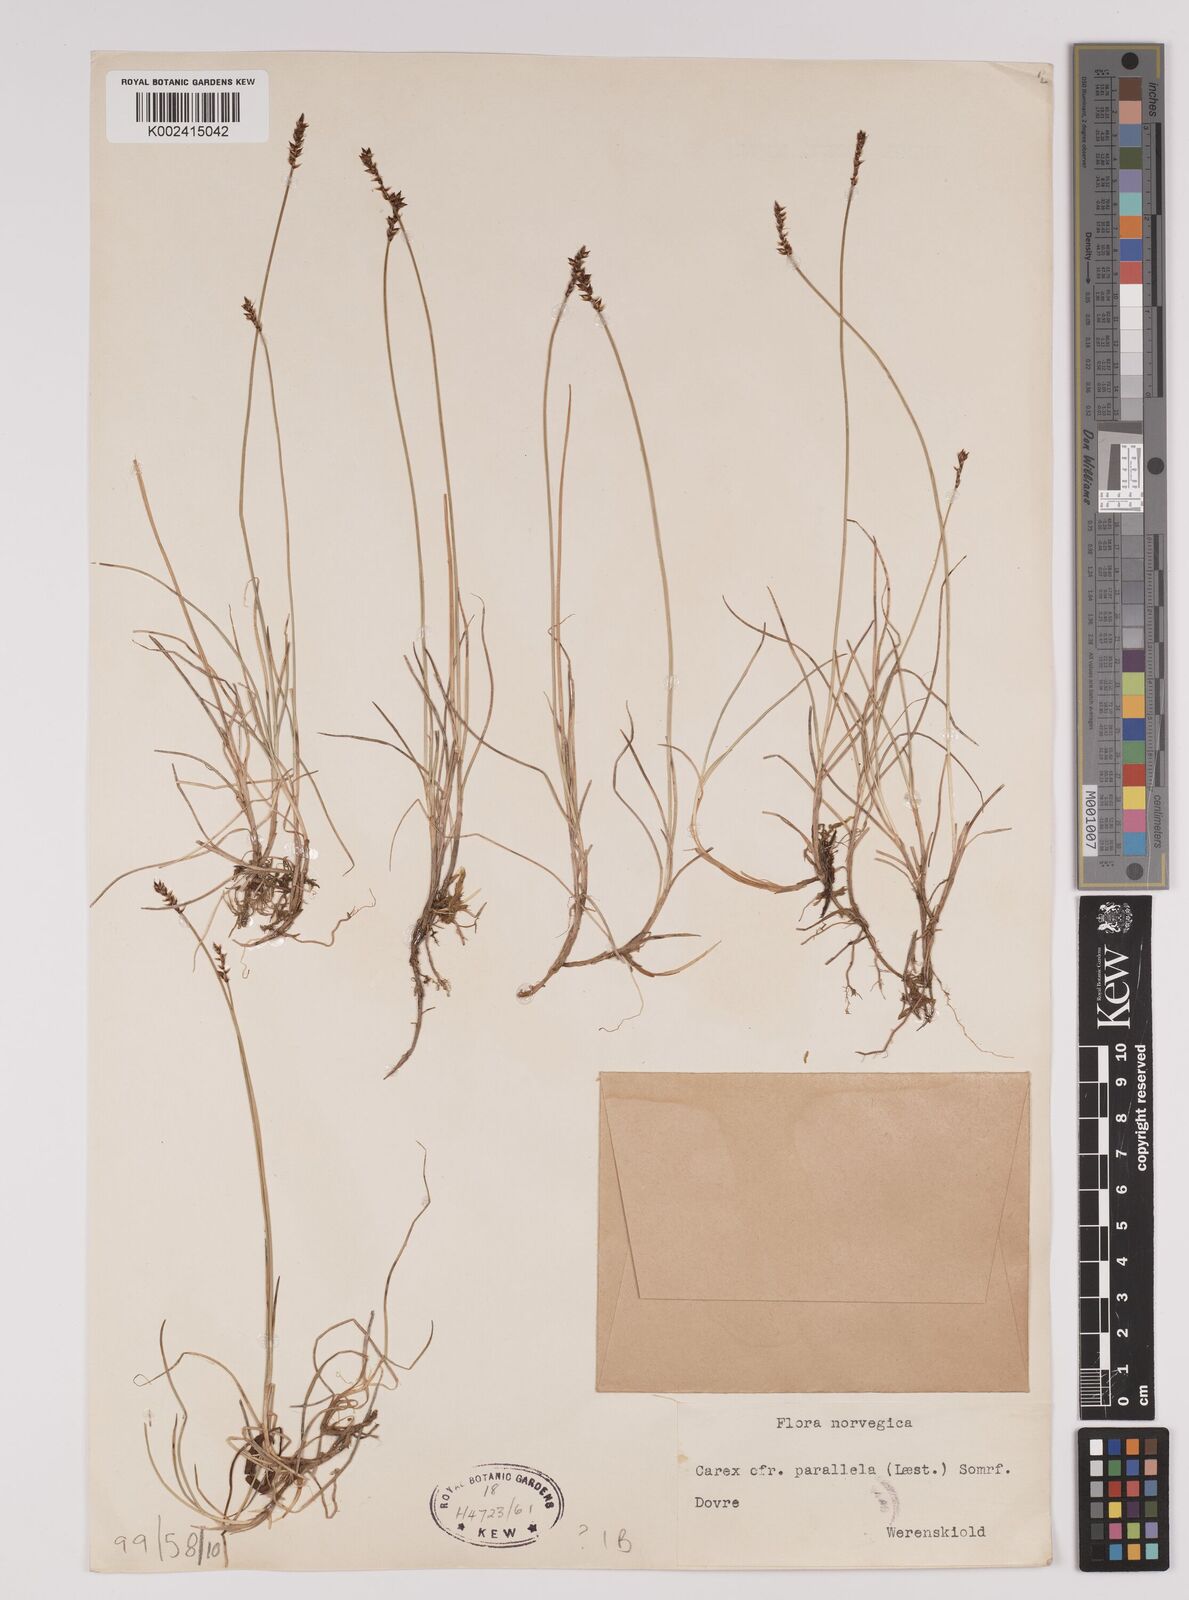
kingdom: Plantae
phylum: Tracheophyta
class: Liliopsida
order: Poales
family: Cyperaceae
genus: Carex
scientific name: Carex parallela
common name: Parallel sedge
